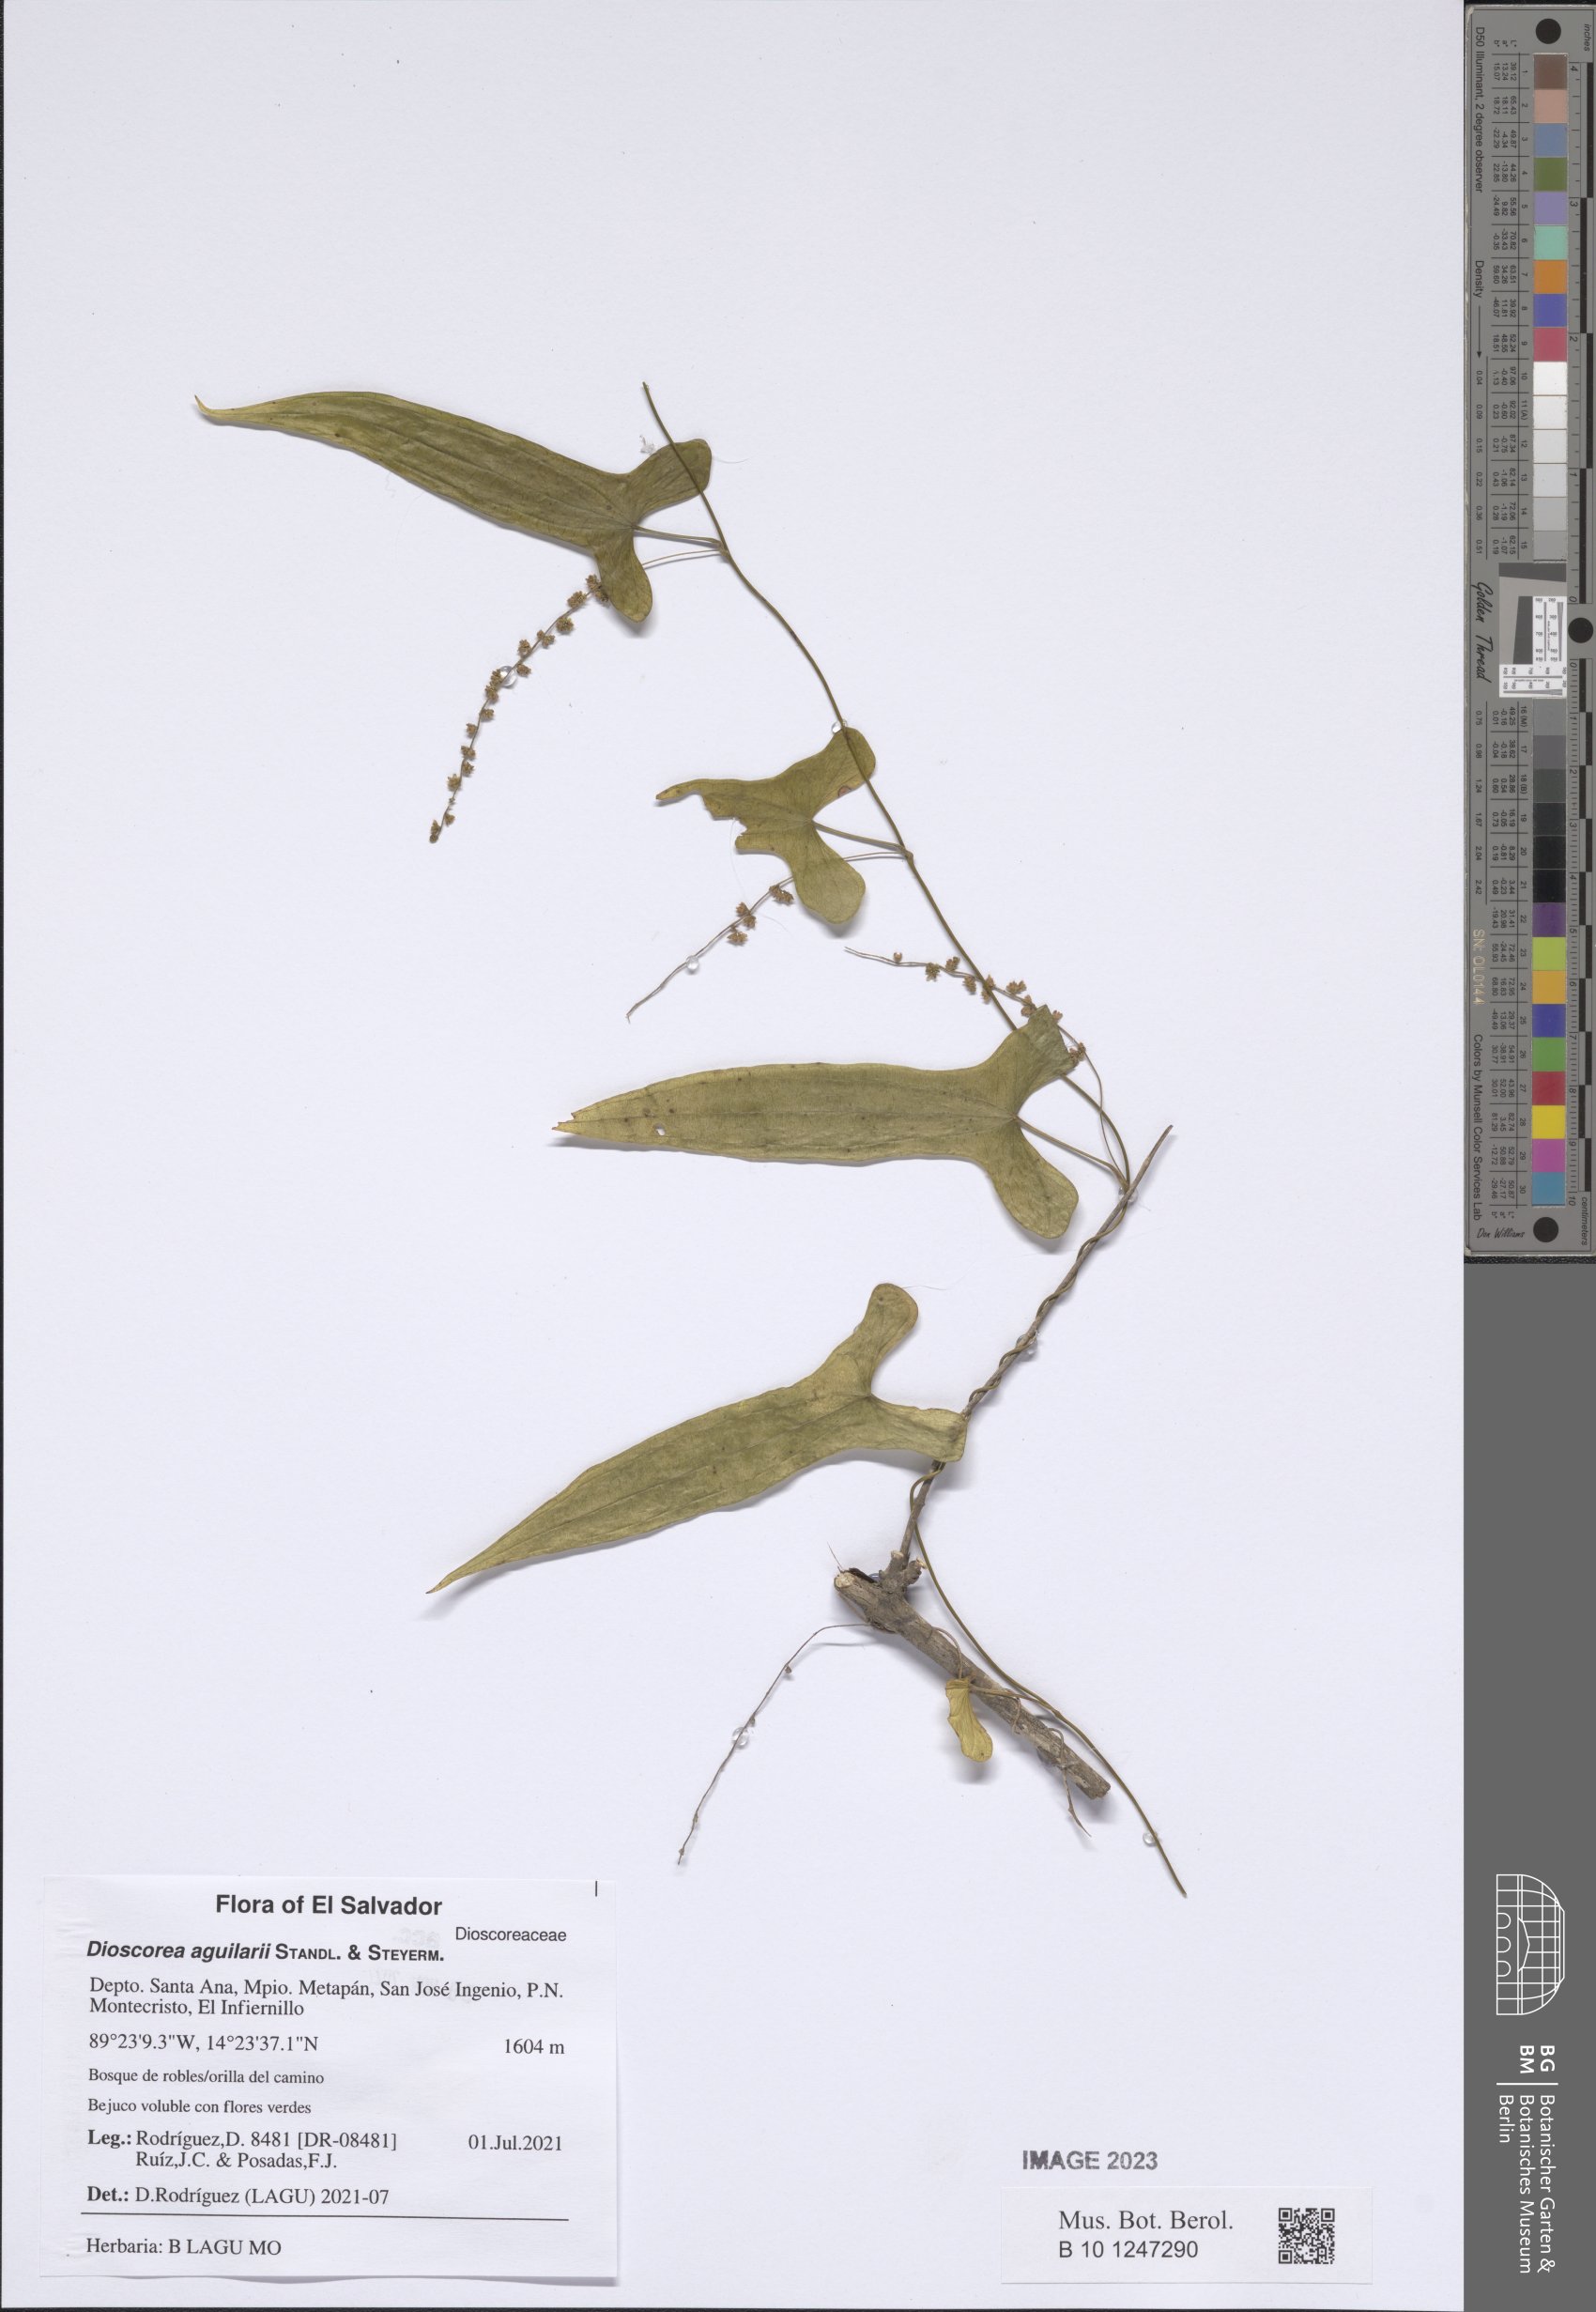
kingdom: Plantae
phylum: Tracheophyta
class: Liliopsida
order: Dioscoreales
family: Dioscoreaceae
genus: Dioscorea
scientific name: Dioscorea aguilarii
